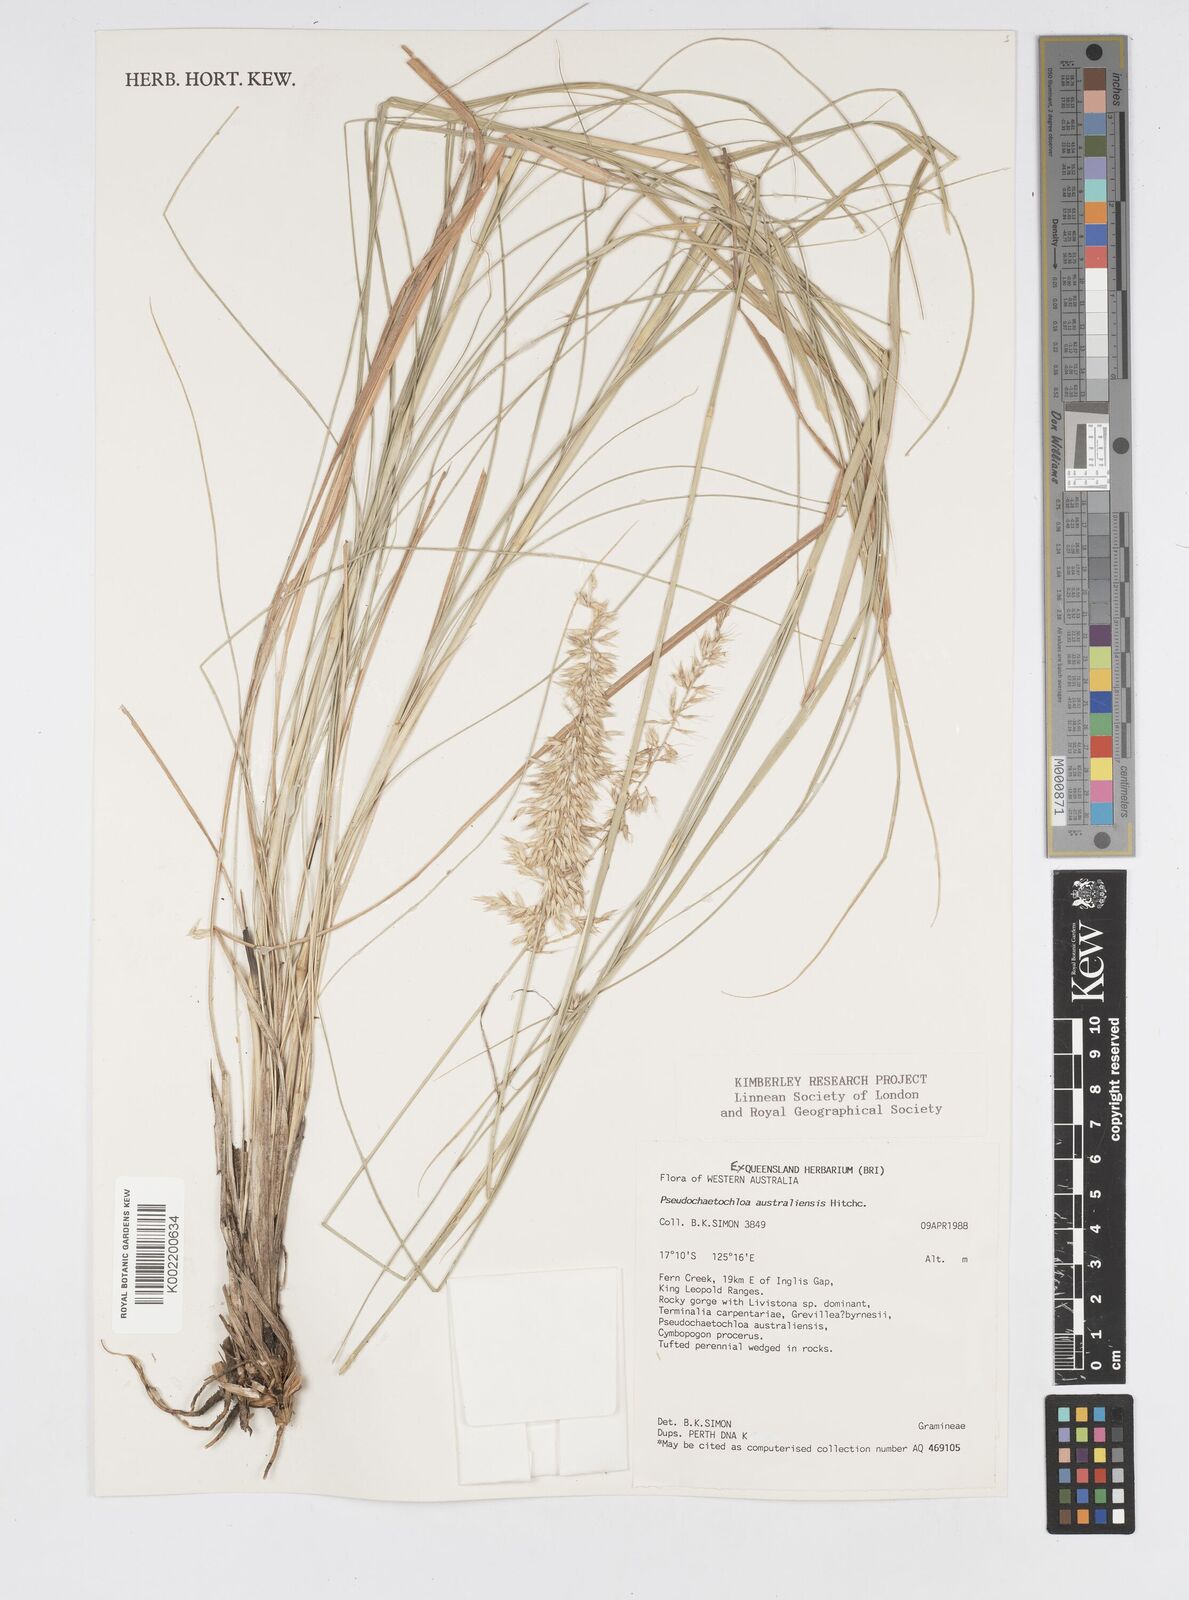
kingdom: Plantae
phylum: Tracheophyta
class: Liliopsida
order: Poales
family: Poaceae
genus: Cenchrus
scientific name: Cenchrus arnhemicus
